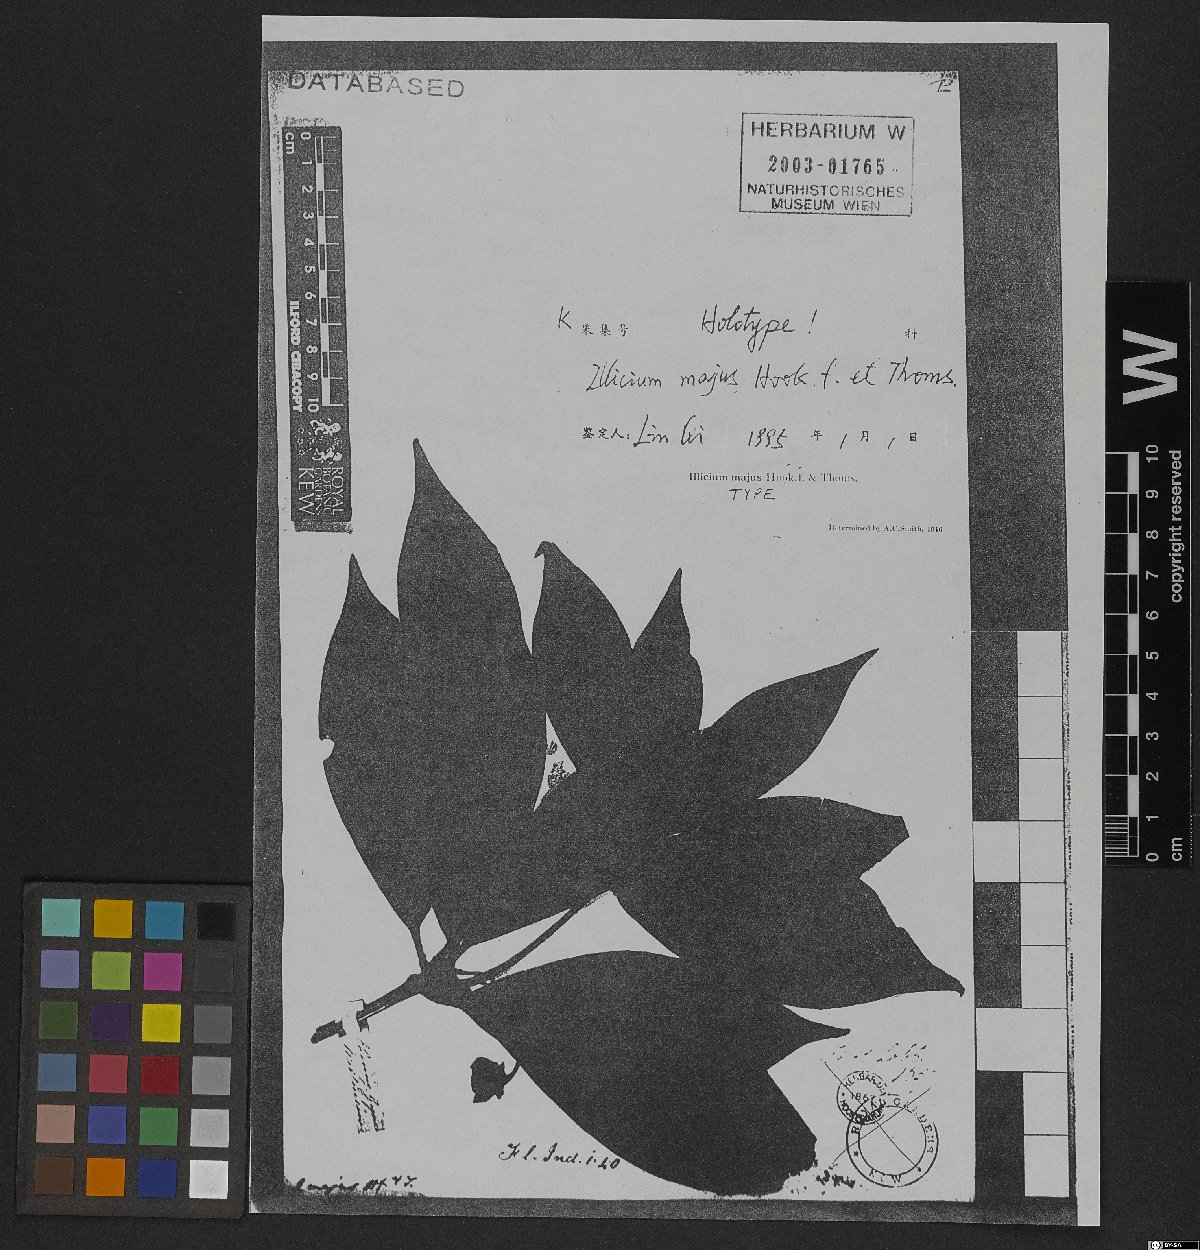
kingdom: Plantae
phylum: Tracheophyta
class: Magnoliopsida
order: Austrobaileyales
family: Schisandraceae
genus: Illicium
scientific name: Illicium majus
